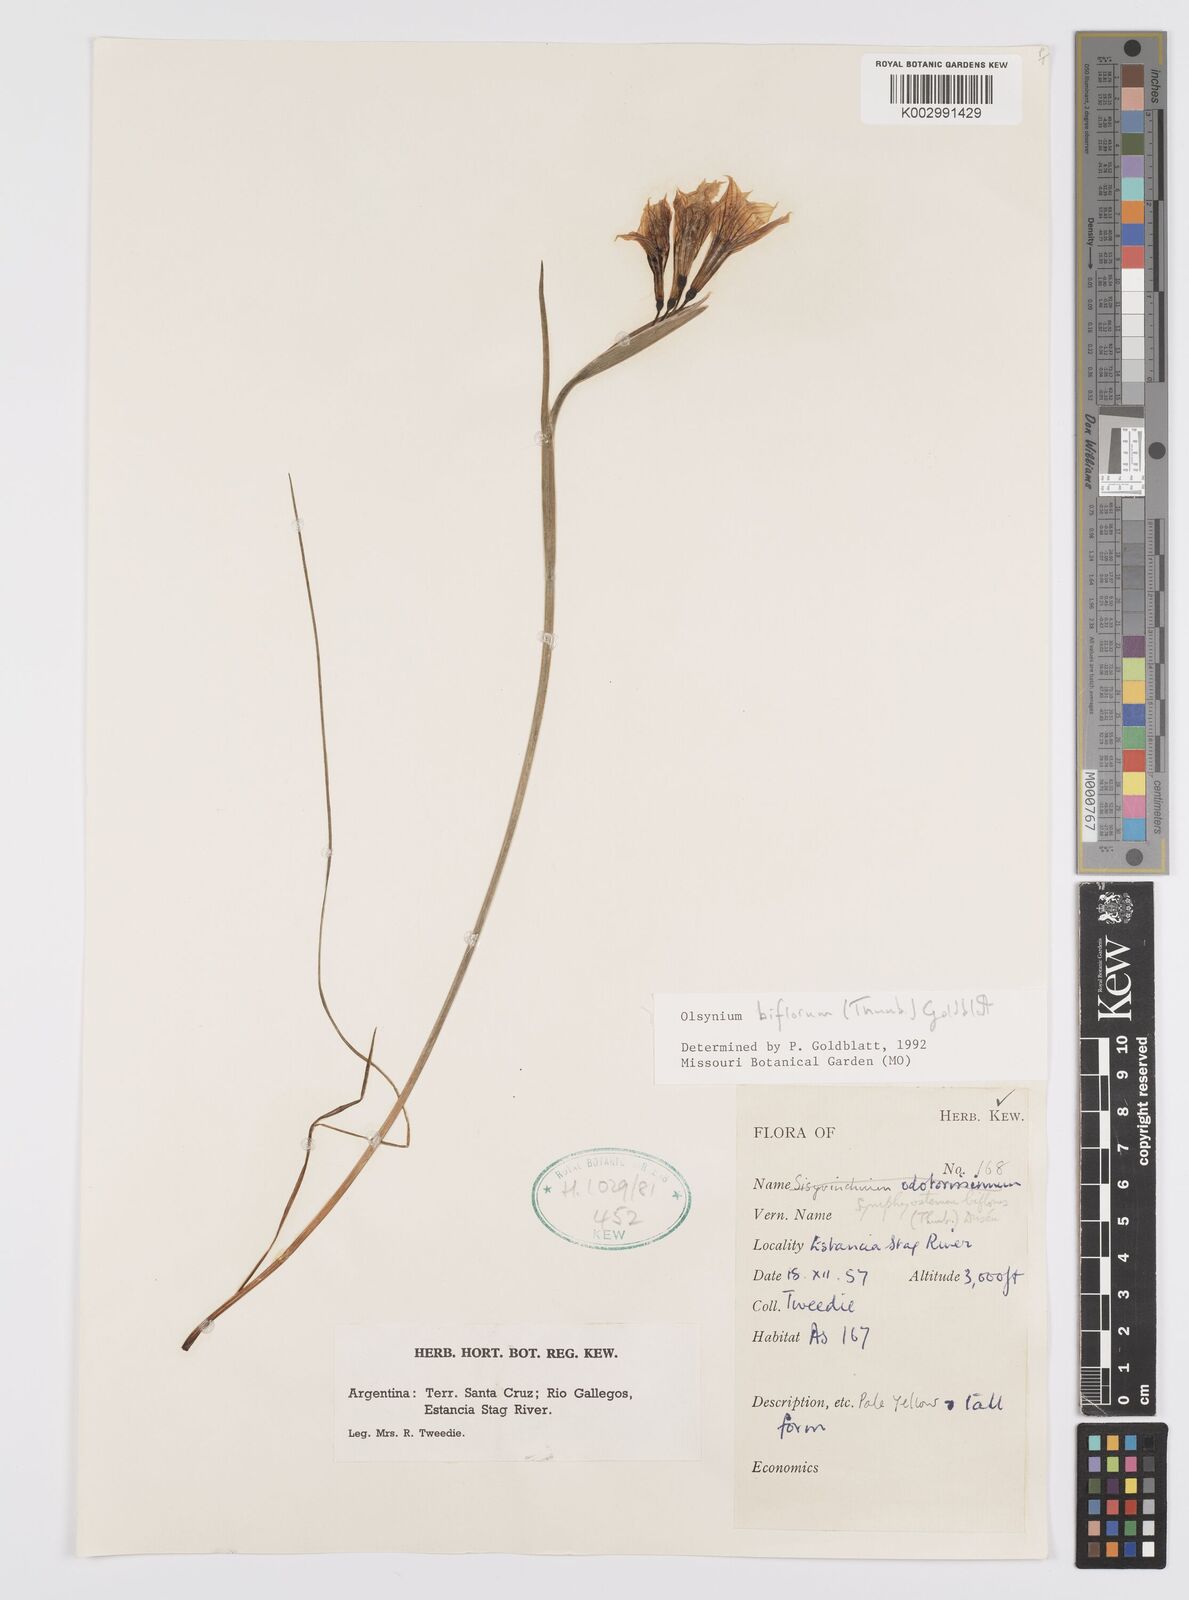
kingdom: Plantae
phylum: Tracheophyta
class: Liliopsida
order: Asparagales
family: Iridaceae
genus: Olsynium
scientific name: Olsynium biflorum
